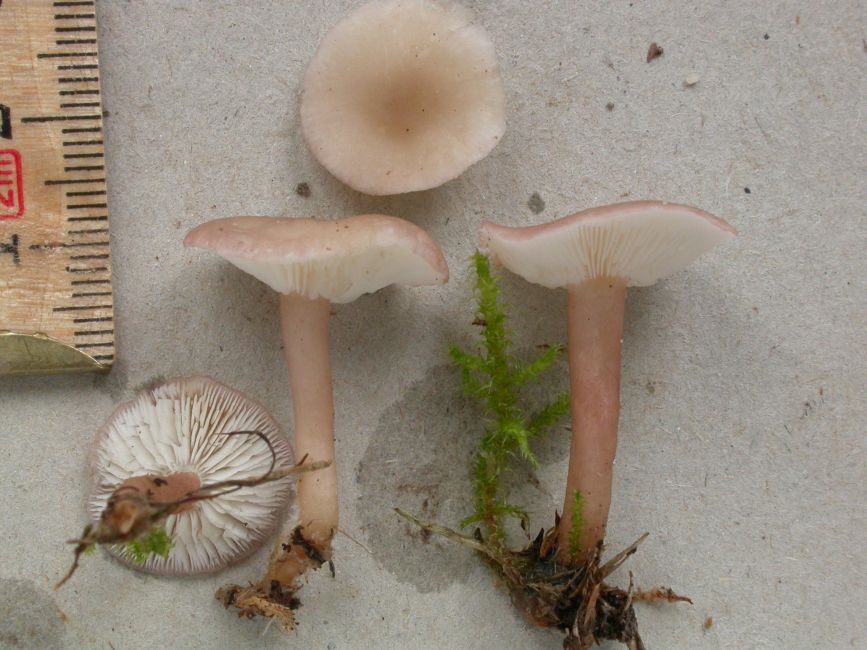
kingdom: Fungi
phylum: Basidiomycota
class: Agaricomycetes
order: Agaricales
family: Lyophyllaceae
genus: Calocybe
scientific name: Calocybe carnea
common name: rosa fagerhat
